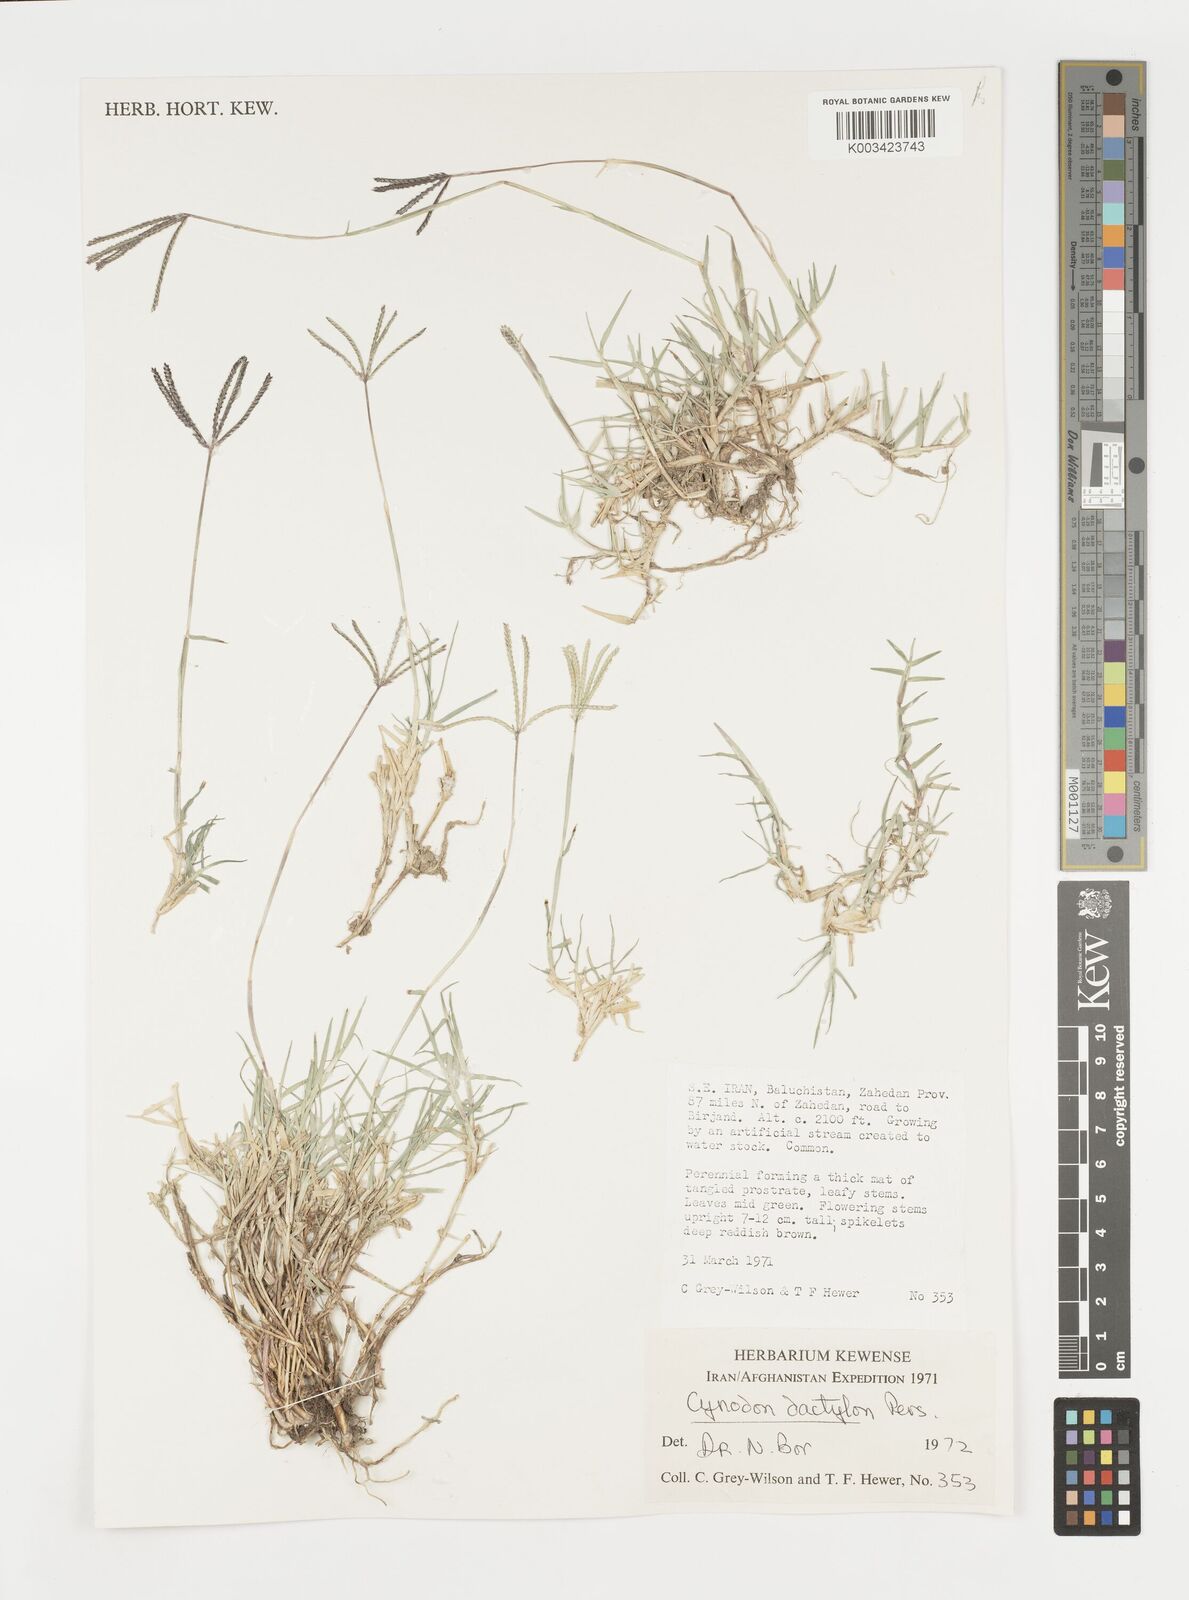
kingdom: Plantae
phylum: Tracheophyta
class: Liliopsida
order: Poales
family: Poaceae
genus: Cynodon
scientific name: Cynodon dactylon
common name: Bermuda grass
